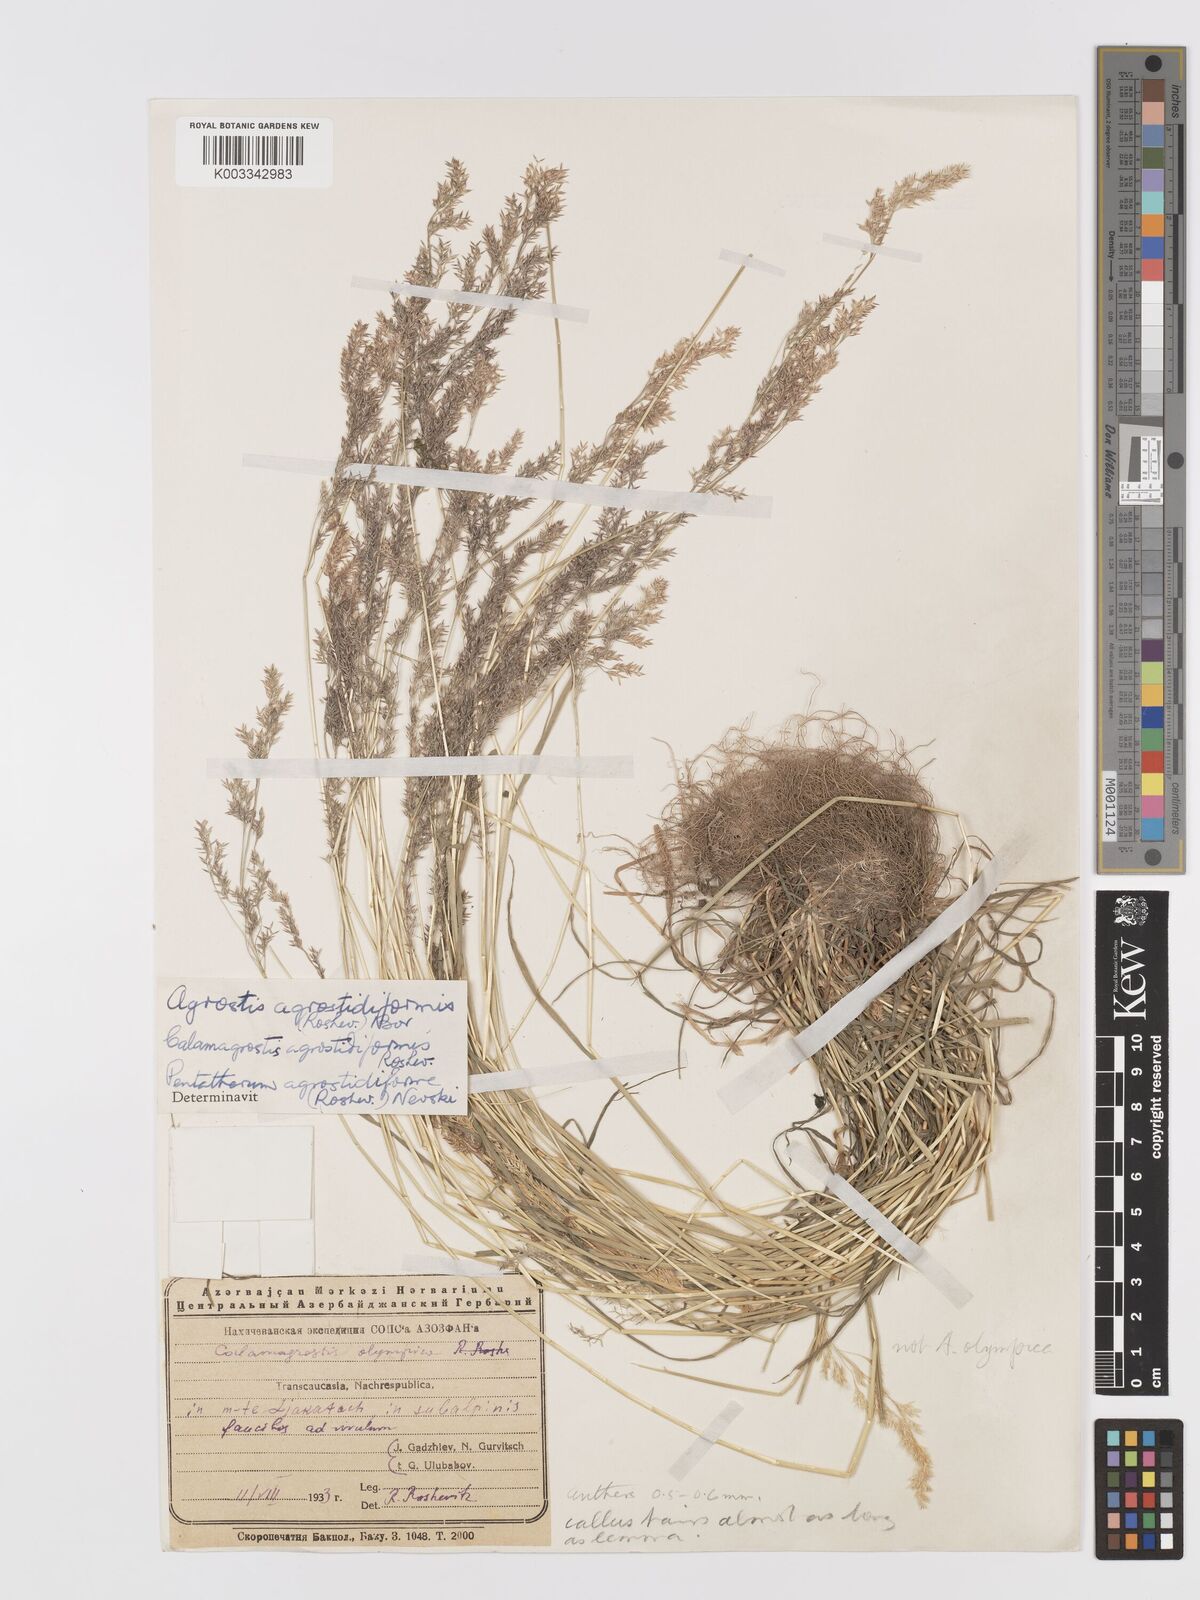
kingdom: Plantae
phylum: Tracheophyta
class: Liliopsida
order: Poales
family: Poaceae
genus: Agrostis
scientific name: Agrostis olympica
